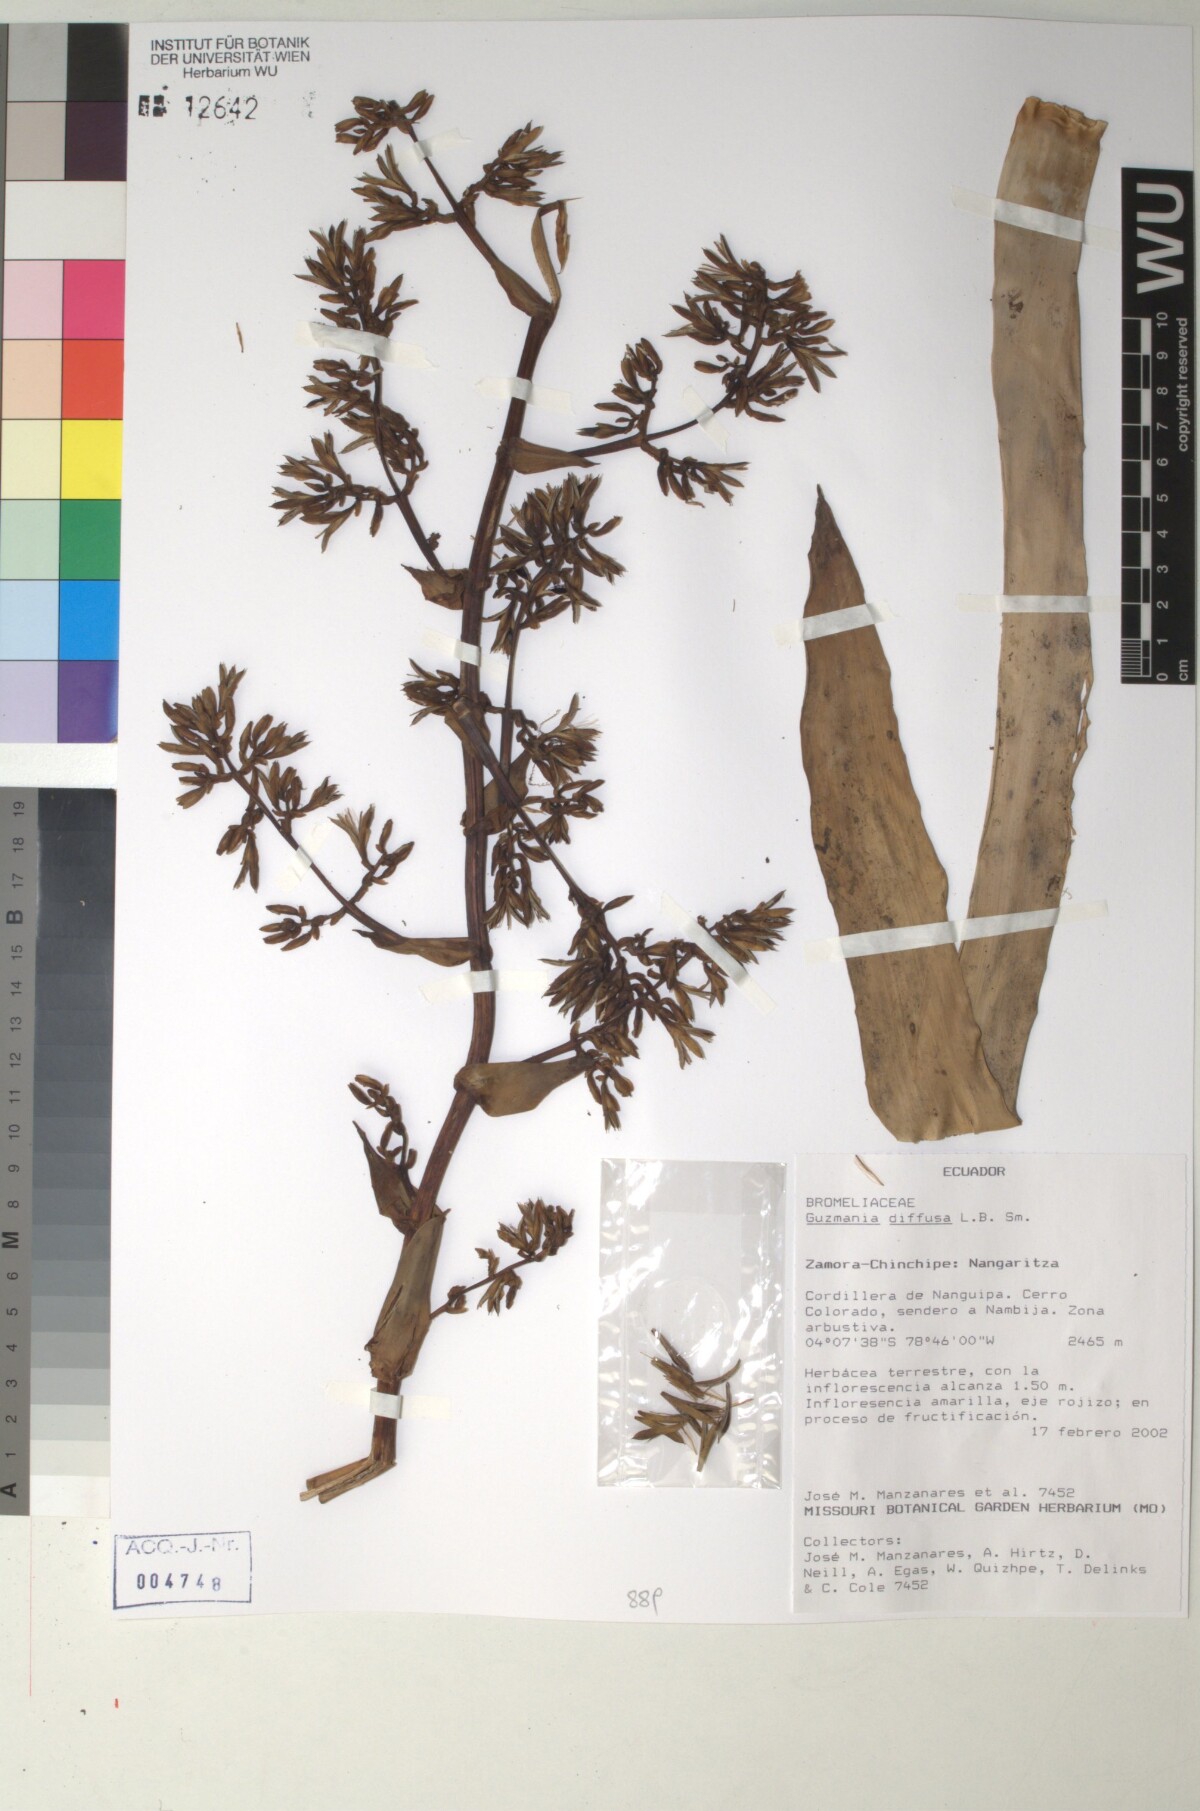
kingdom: Plantae
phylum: Tracheophyta
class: Liliopsida
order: Poales
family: Bromeliaceae
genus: Guzmania
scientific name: Guzmania diffusa
